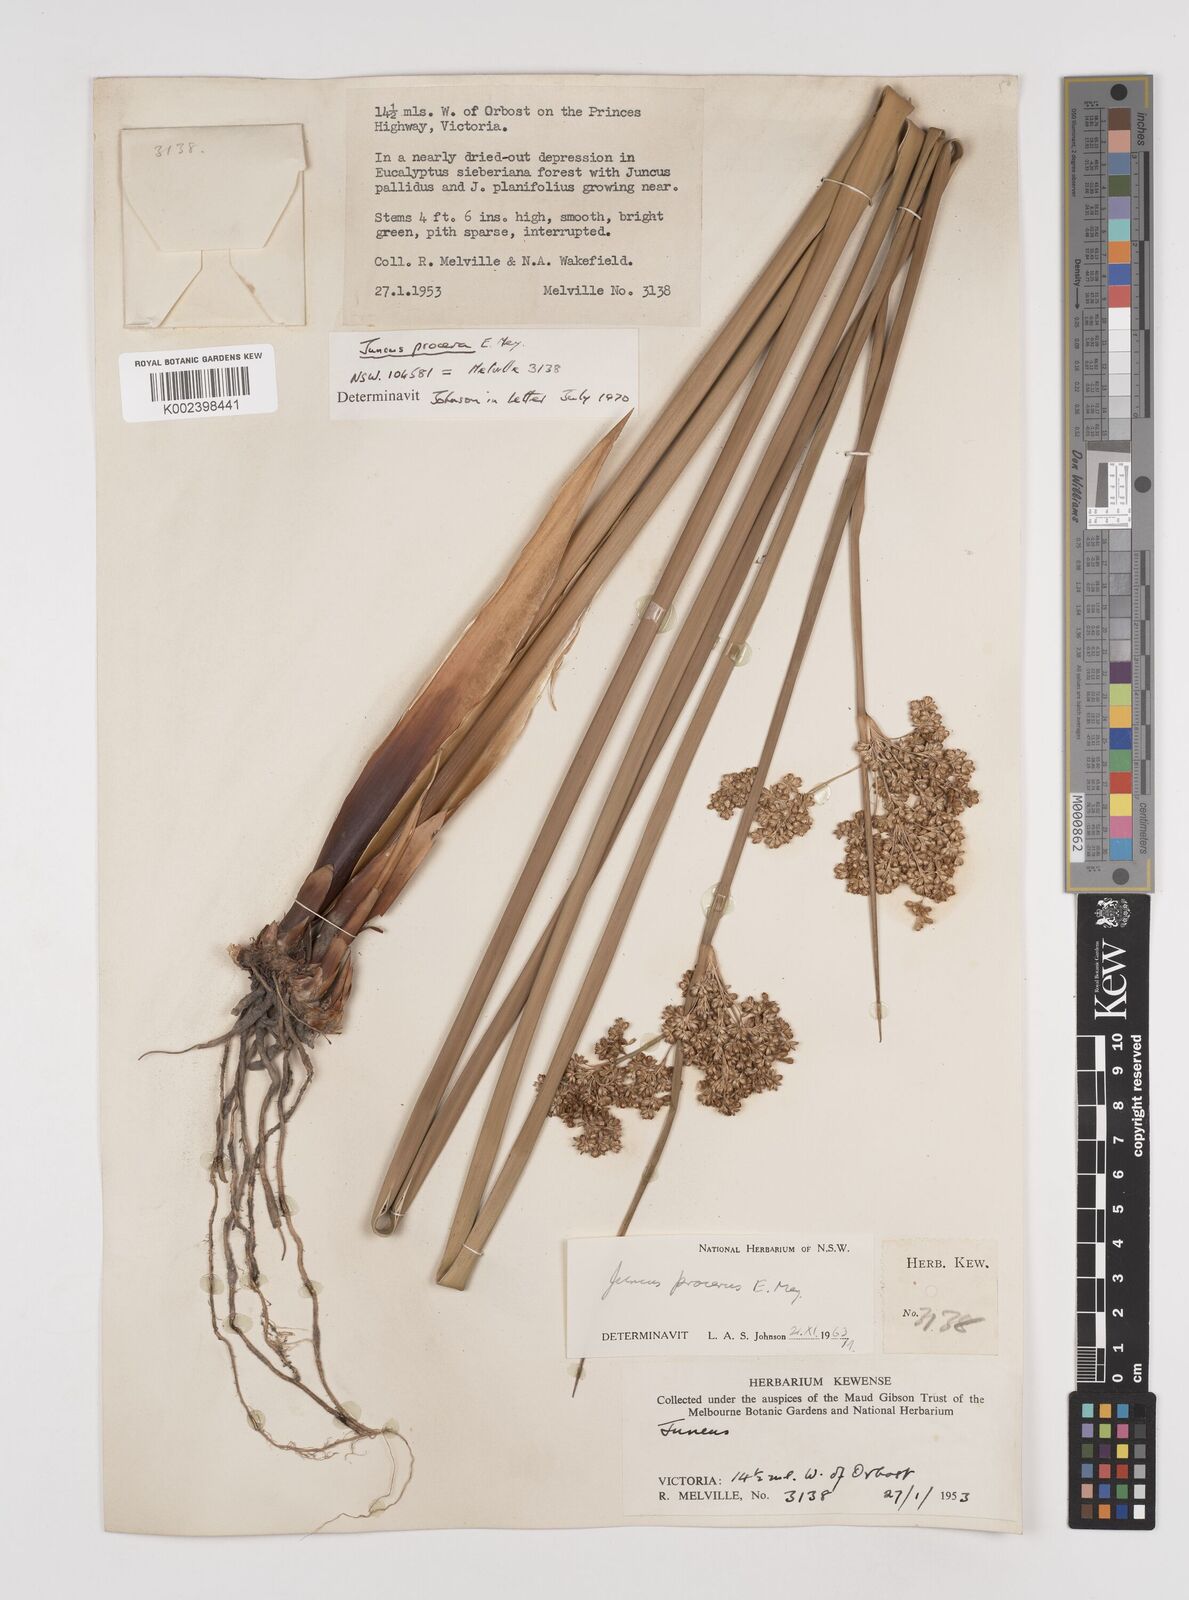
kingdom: Plantae
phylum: Tracheophyta
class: Liliopsida
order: Poales
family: Juncaceae
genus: Juncus
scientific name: Juncus procerus
